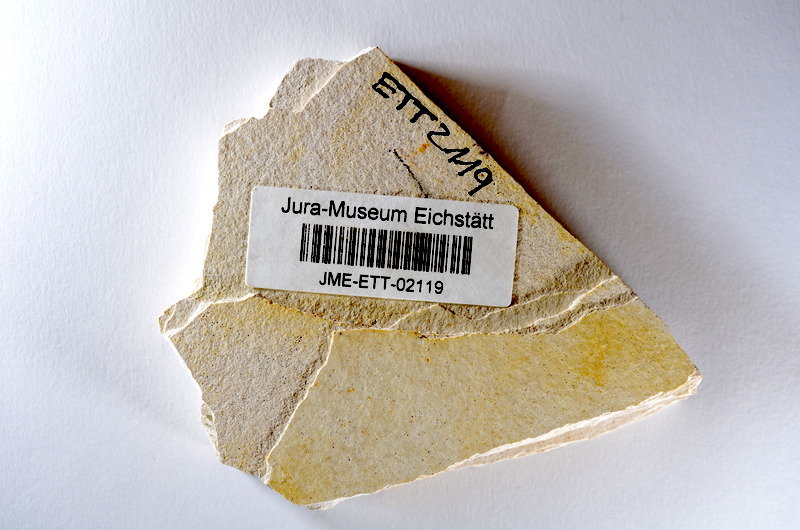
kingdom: Animalia
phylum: Chordata
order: Salmoniformes
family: Orthogonikleithridae
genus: Orthogonikleithrus
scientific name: Orthogonikleithrus hoelli
